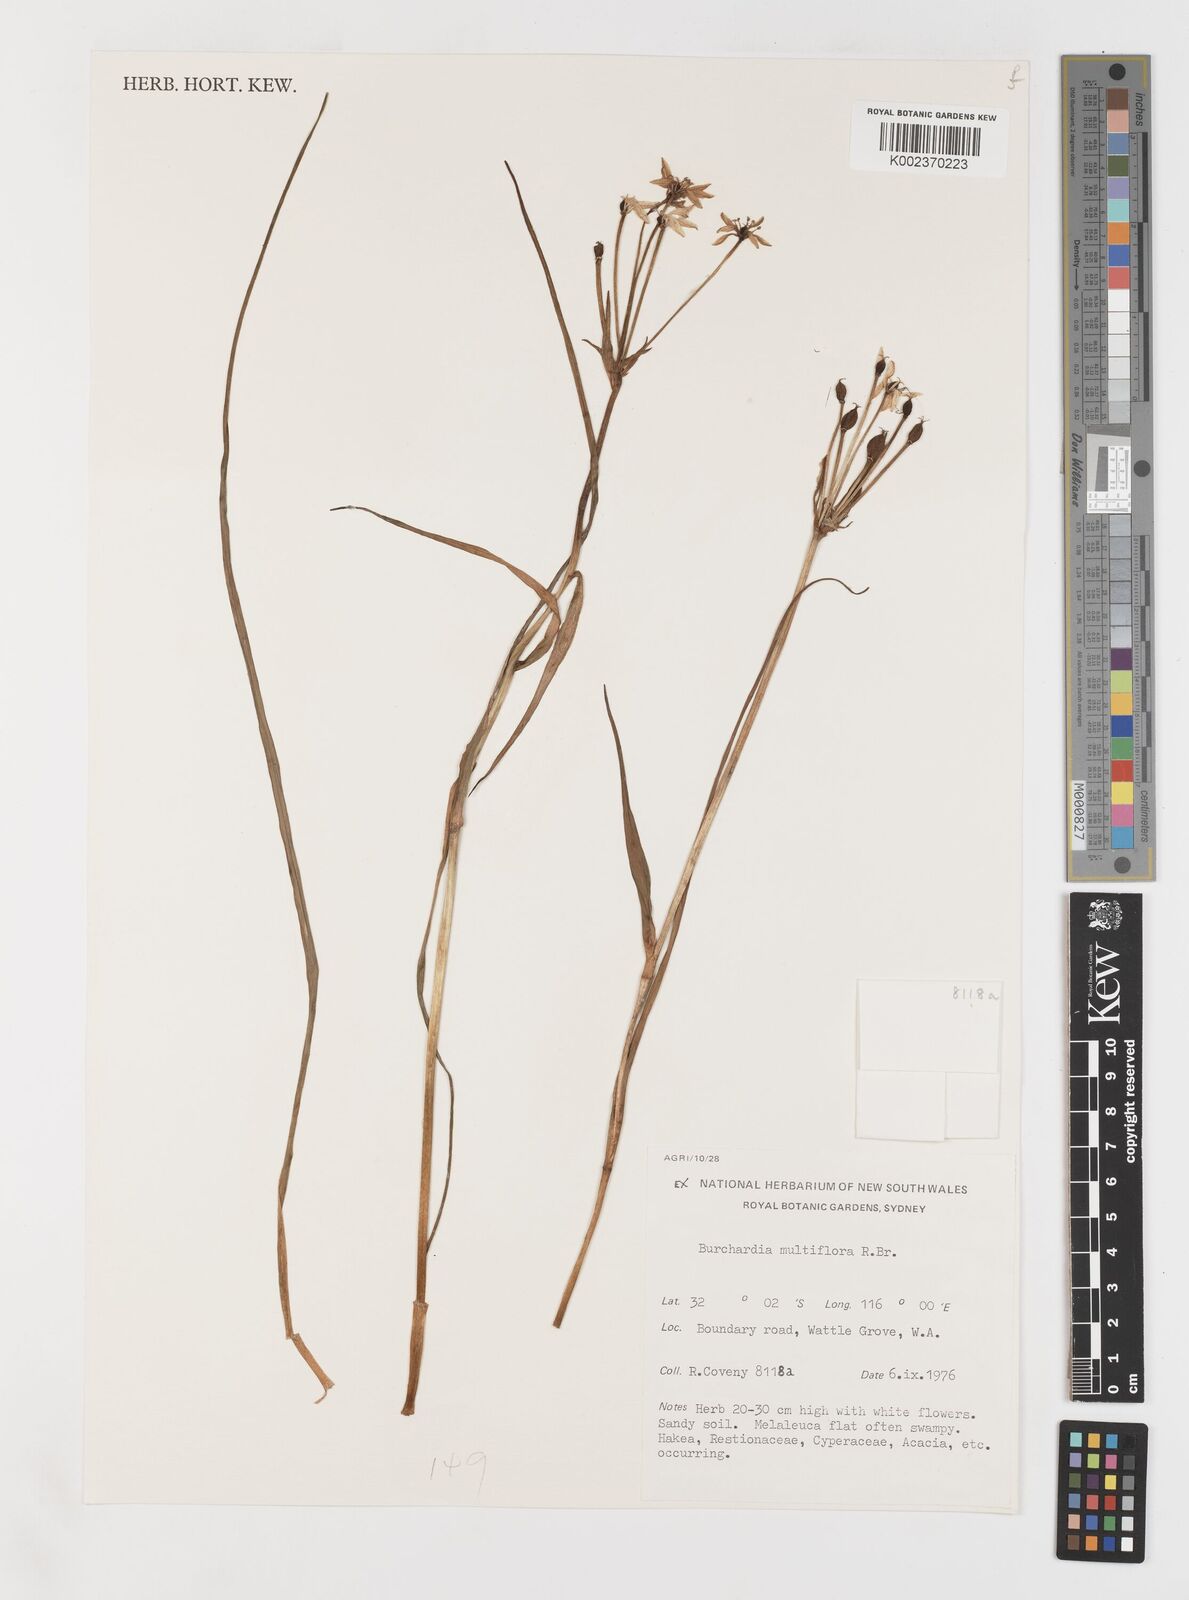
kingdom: Plantae
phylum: Tracheophyta
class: Liliopsida
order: Liliales
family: Colchicaceae
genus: Burchardia
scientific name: Burchardia multiflora
